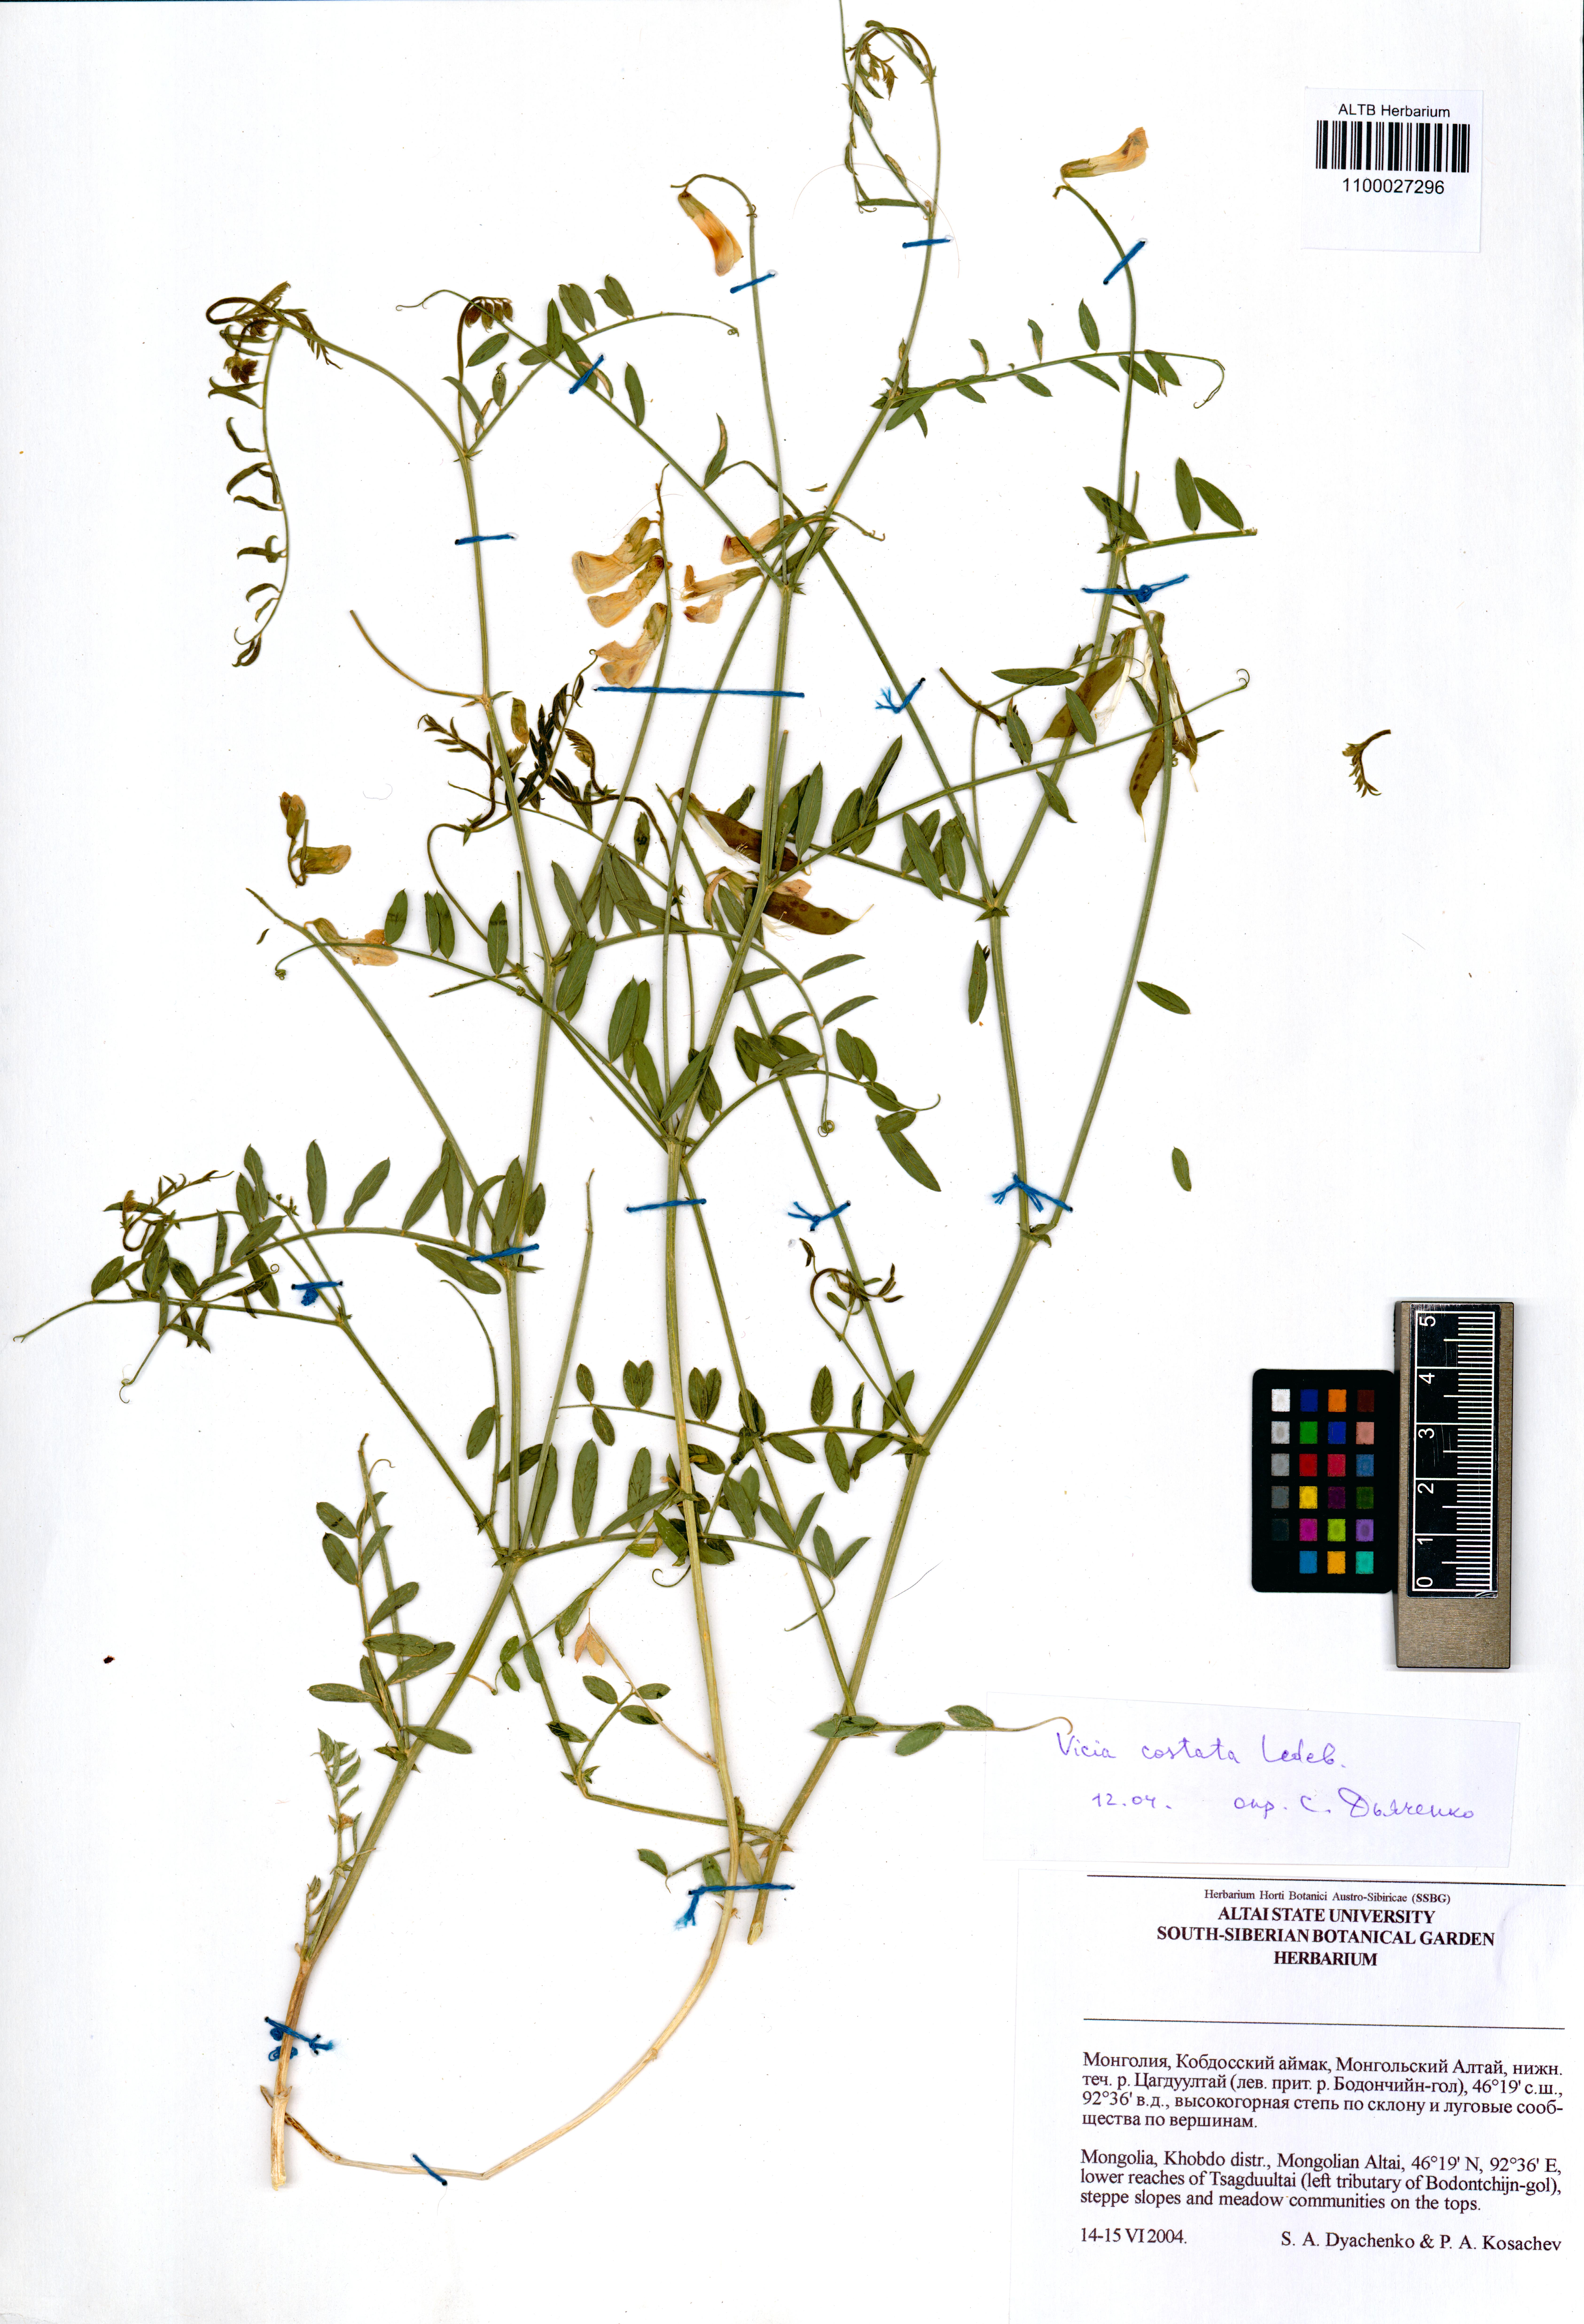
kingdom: Plantae
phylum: Tracheophyta
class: Magnoliopsida
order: Fabales
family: Fabaceae
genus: Vicia
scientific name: Vicia costata
